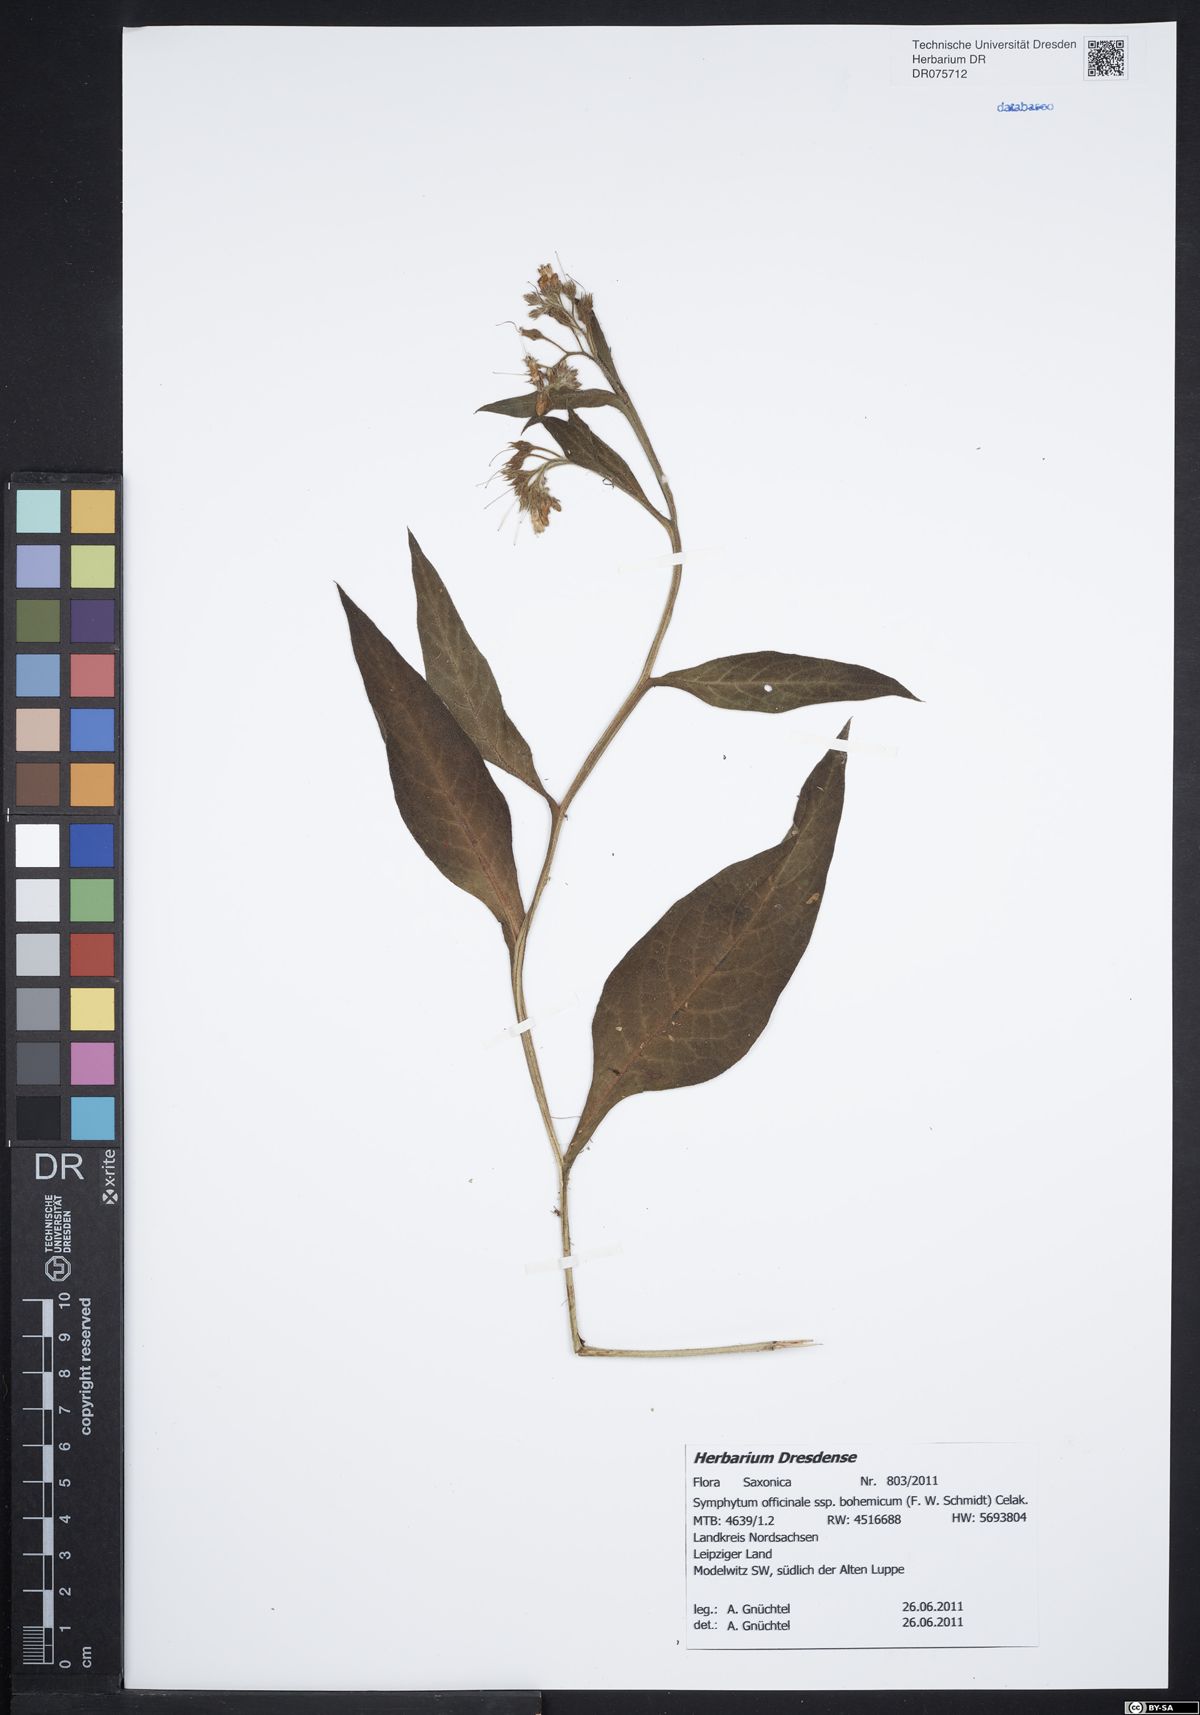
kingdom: Plantae
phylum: Tracheophyta
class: Magnoliopsida
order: Boraginales
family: Boraginaceae
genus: Symphytum
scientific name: Symphytum officinale
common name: Common comfrey
